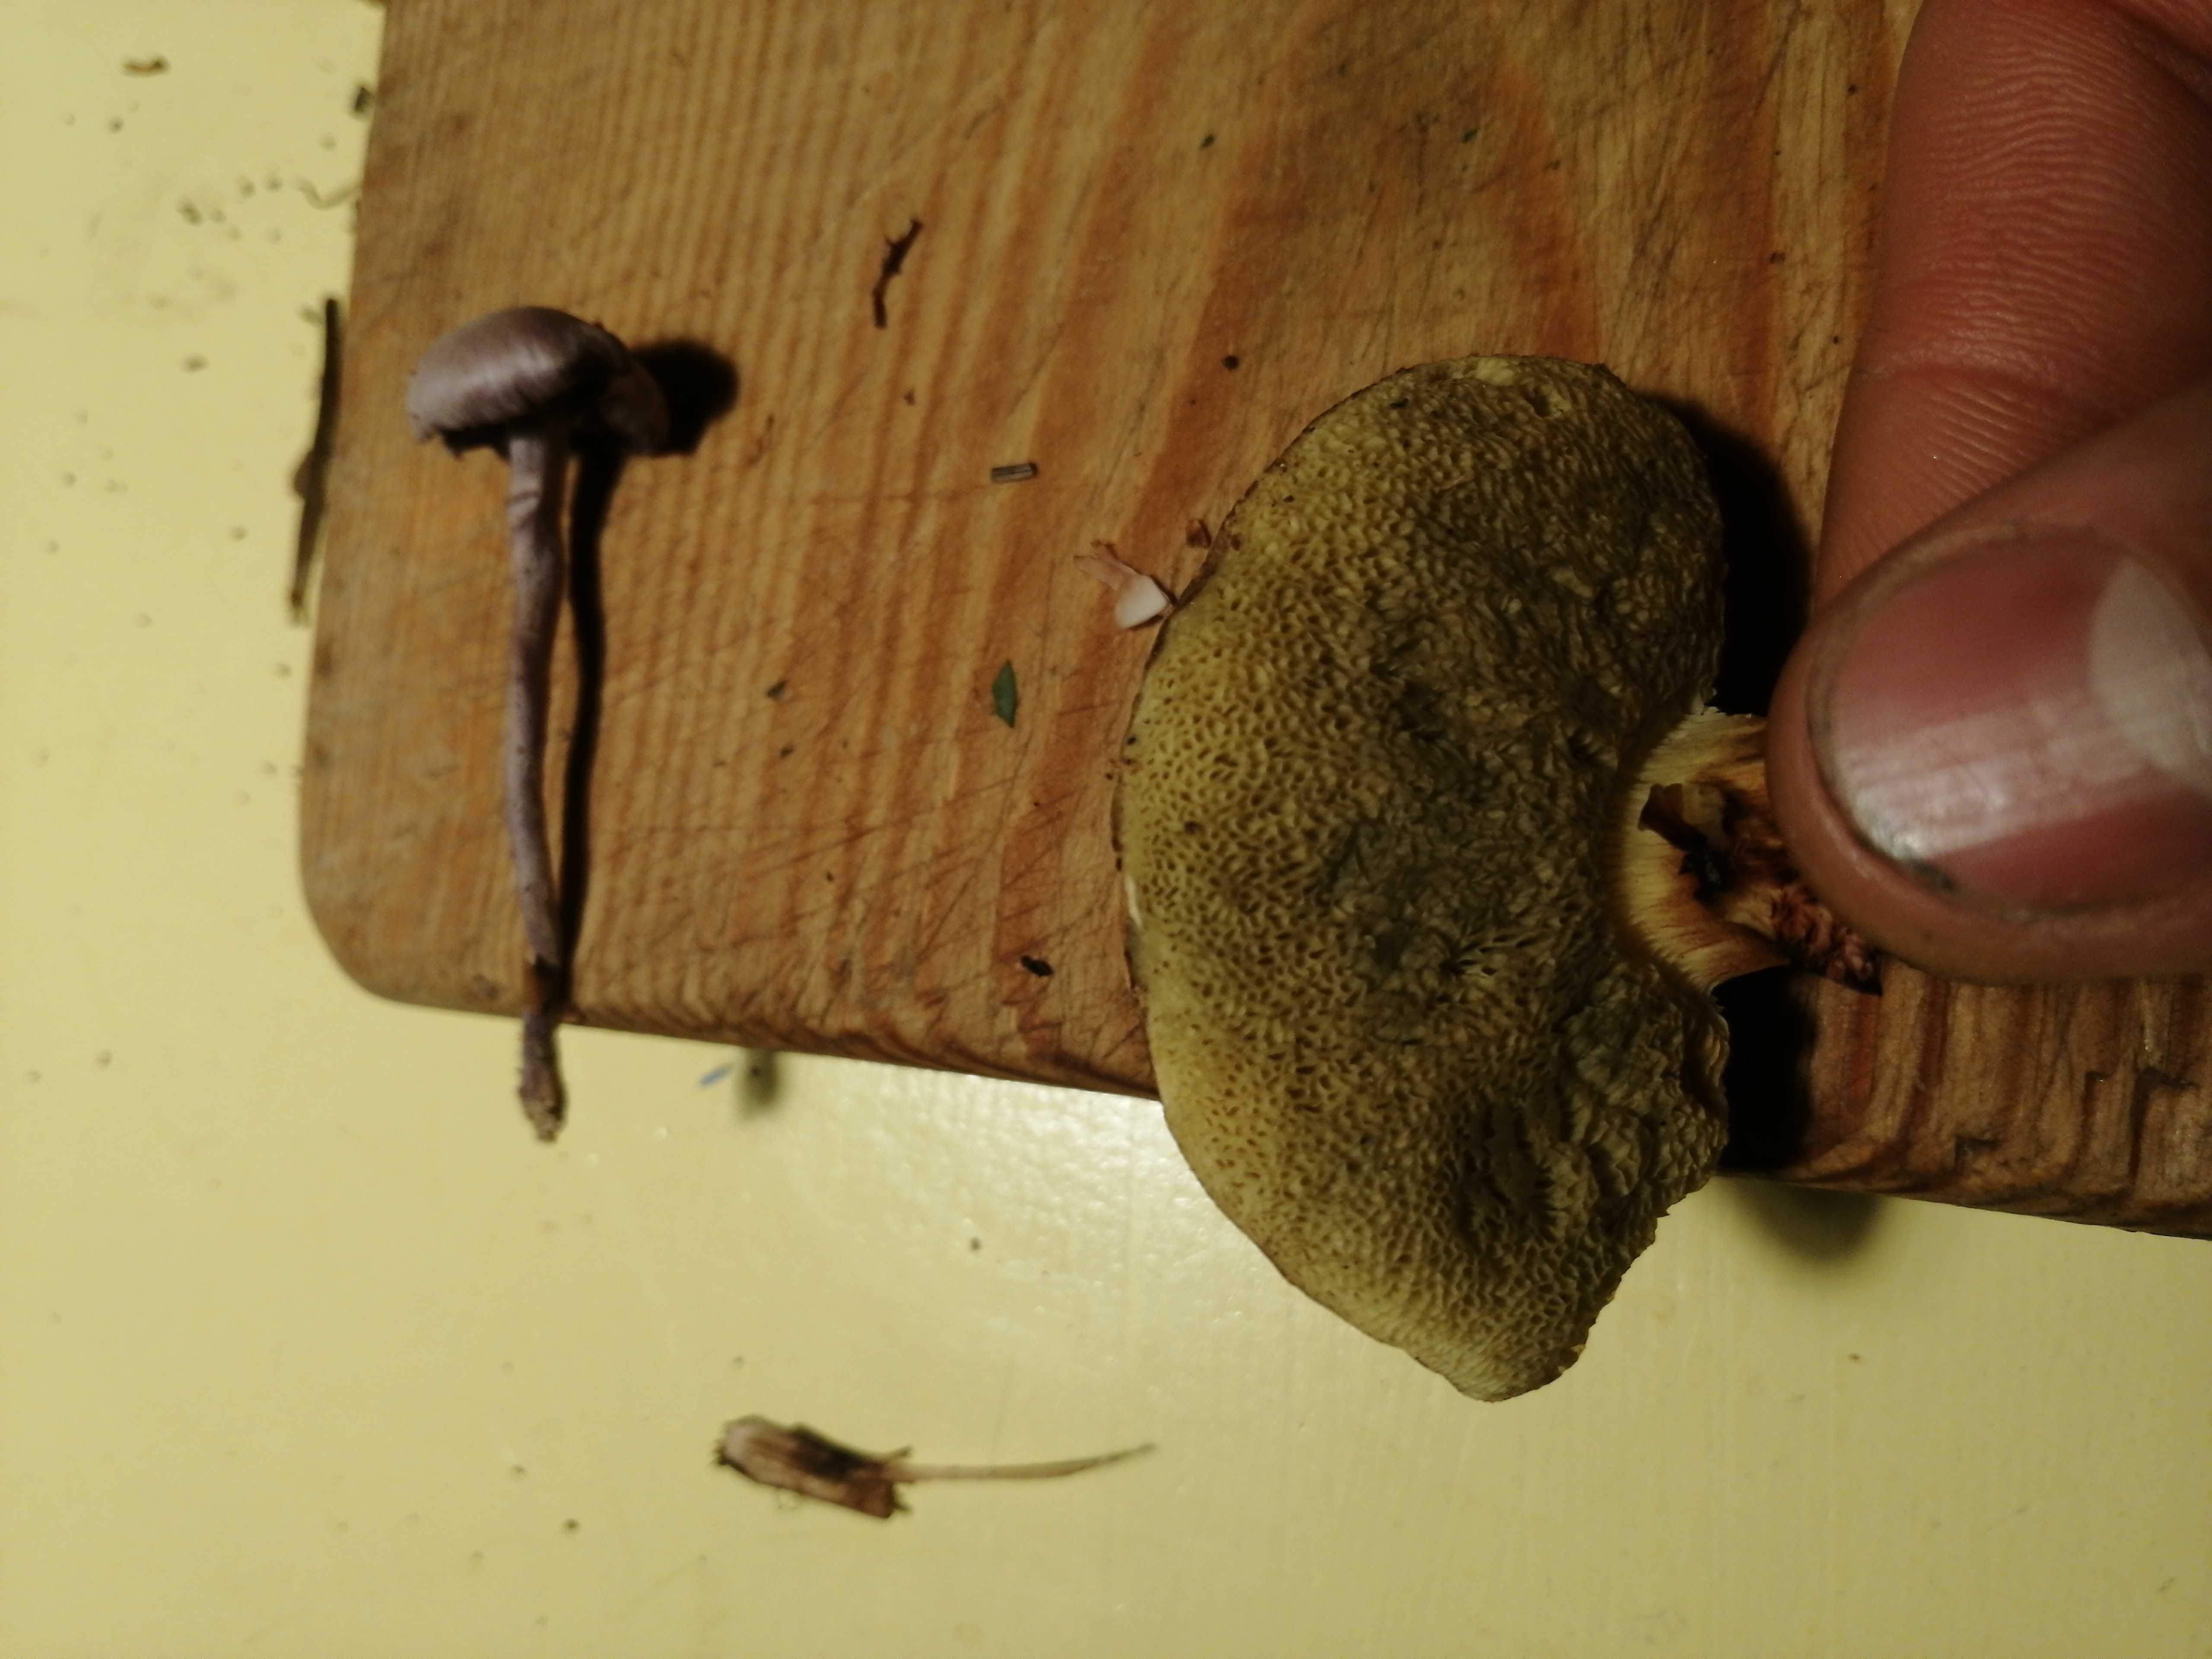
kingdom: Fungi
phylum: Basidiomycota
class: Agaricomycetes
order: Boletales
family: Boletaceae
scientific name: Boletaceae
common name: rørhatfamilien
